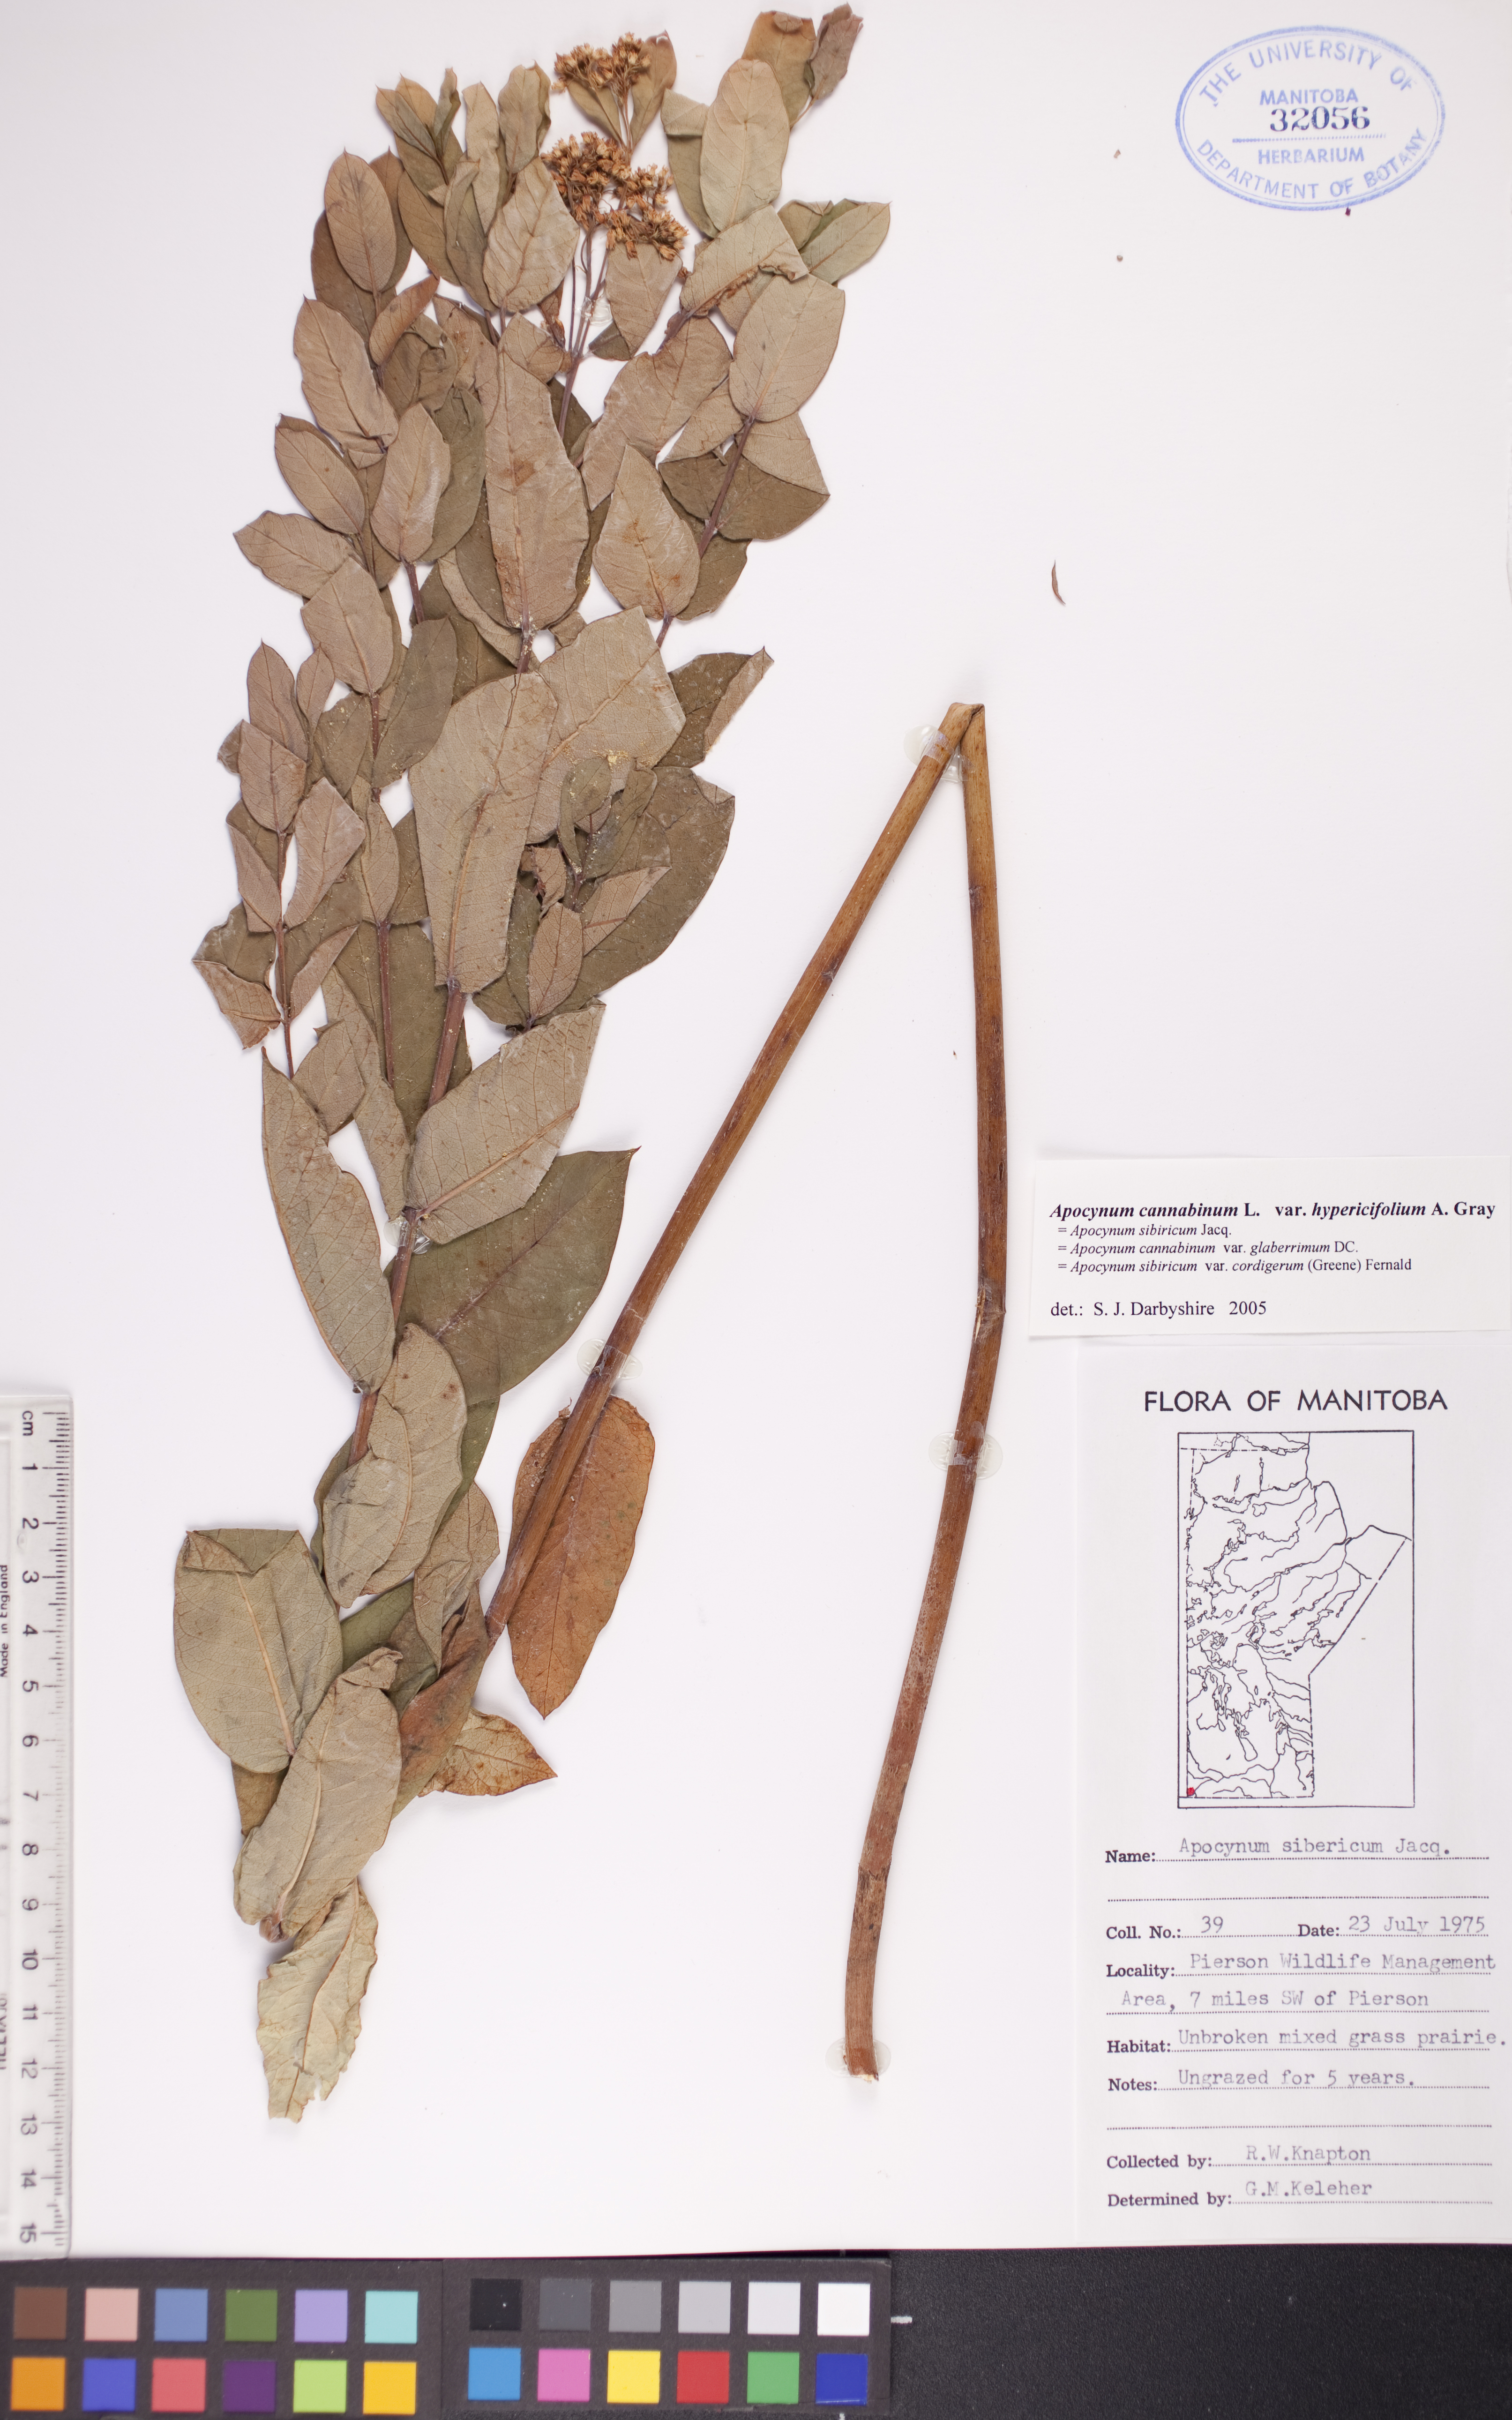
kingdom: Plantae
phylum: Tracheophyta
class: Magnoliopsida
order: Gentianales
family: Apocynaceae
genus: Apocynum
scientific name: Apocynum cannabinum
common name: Hemp dogbane
